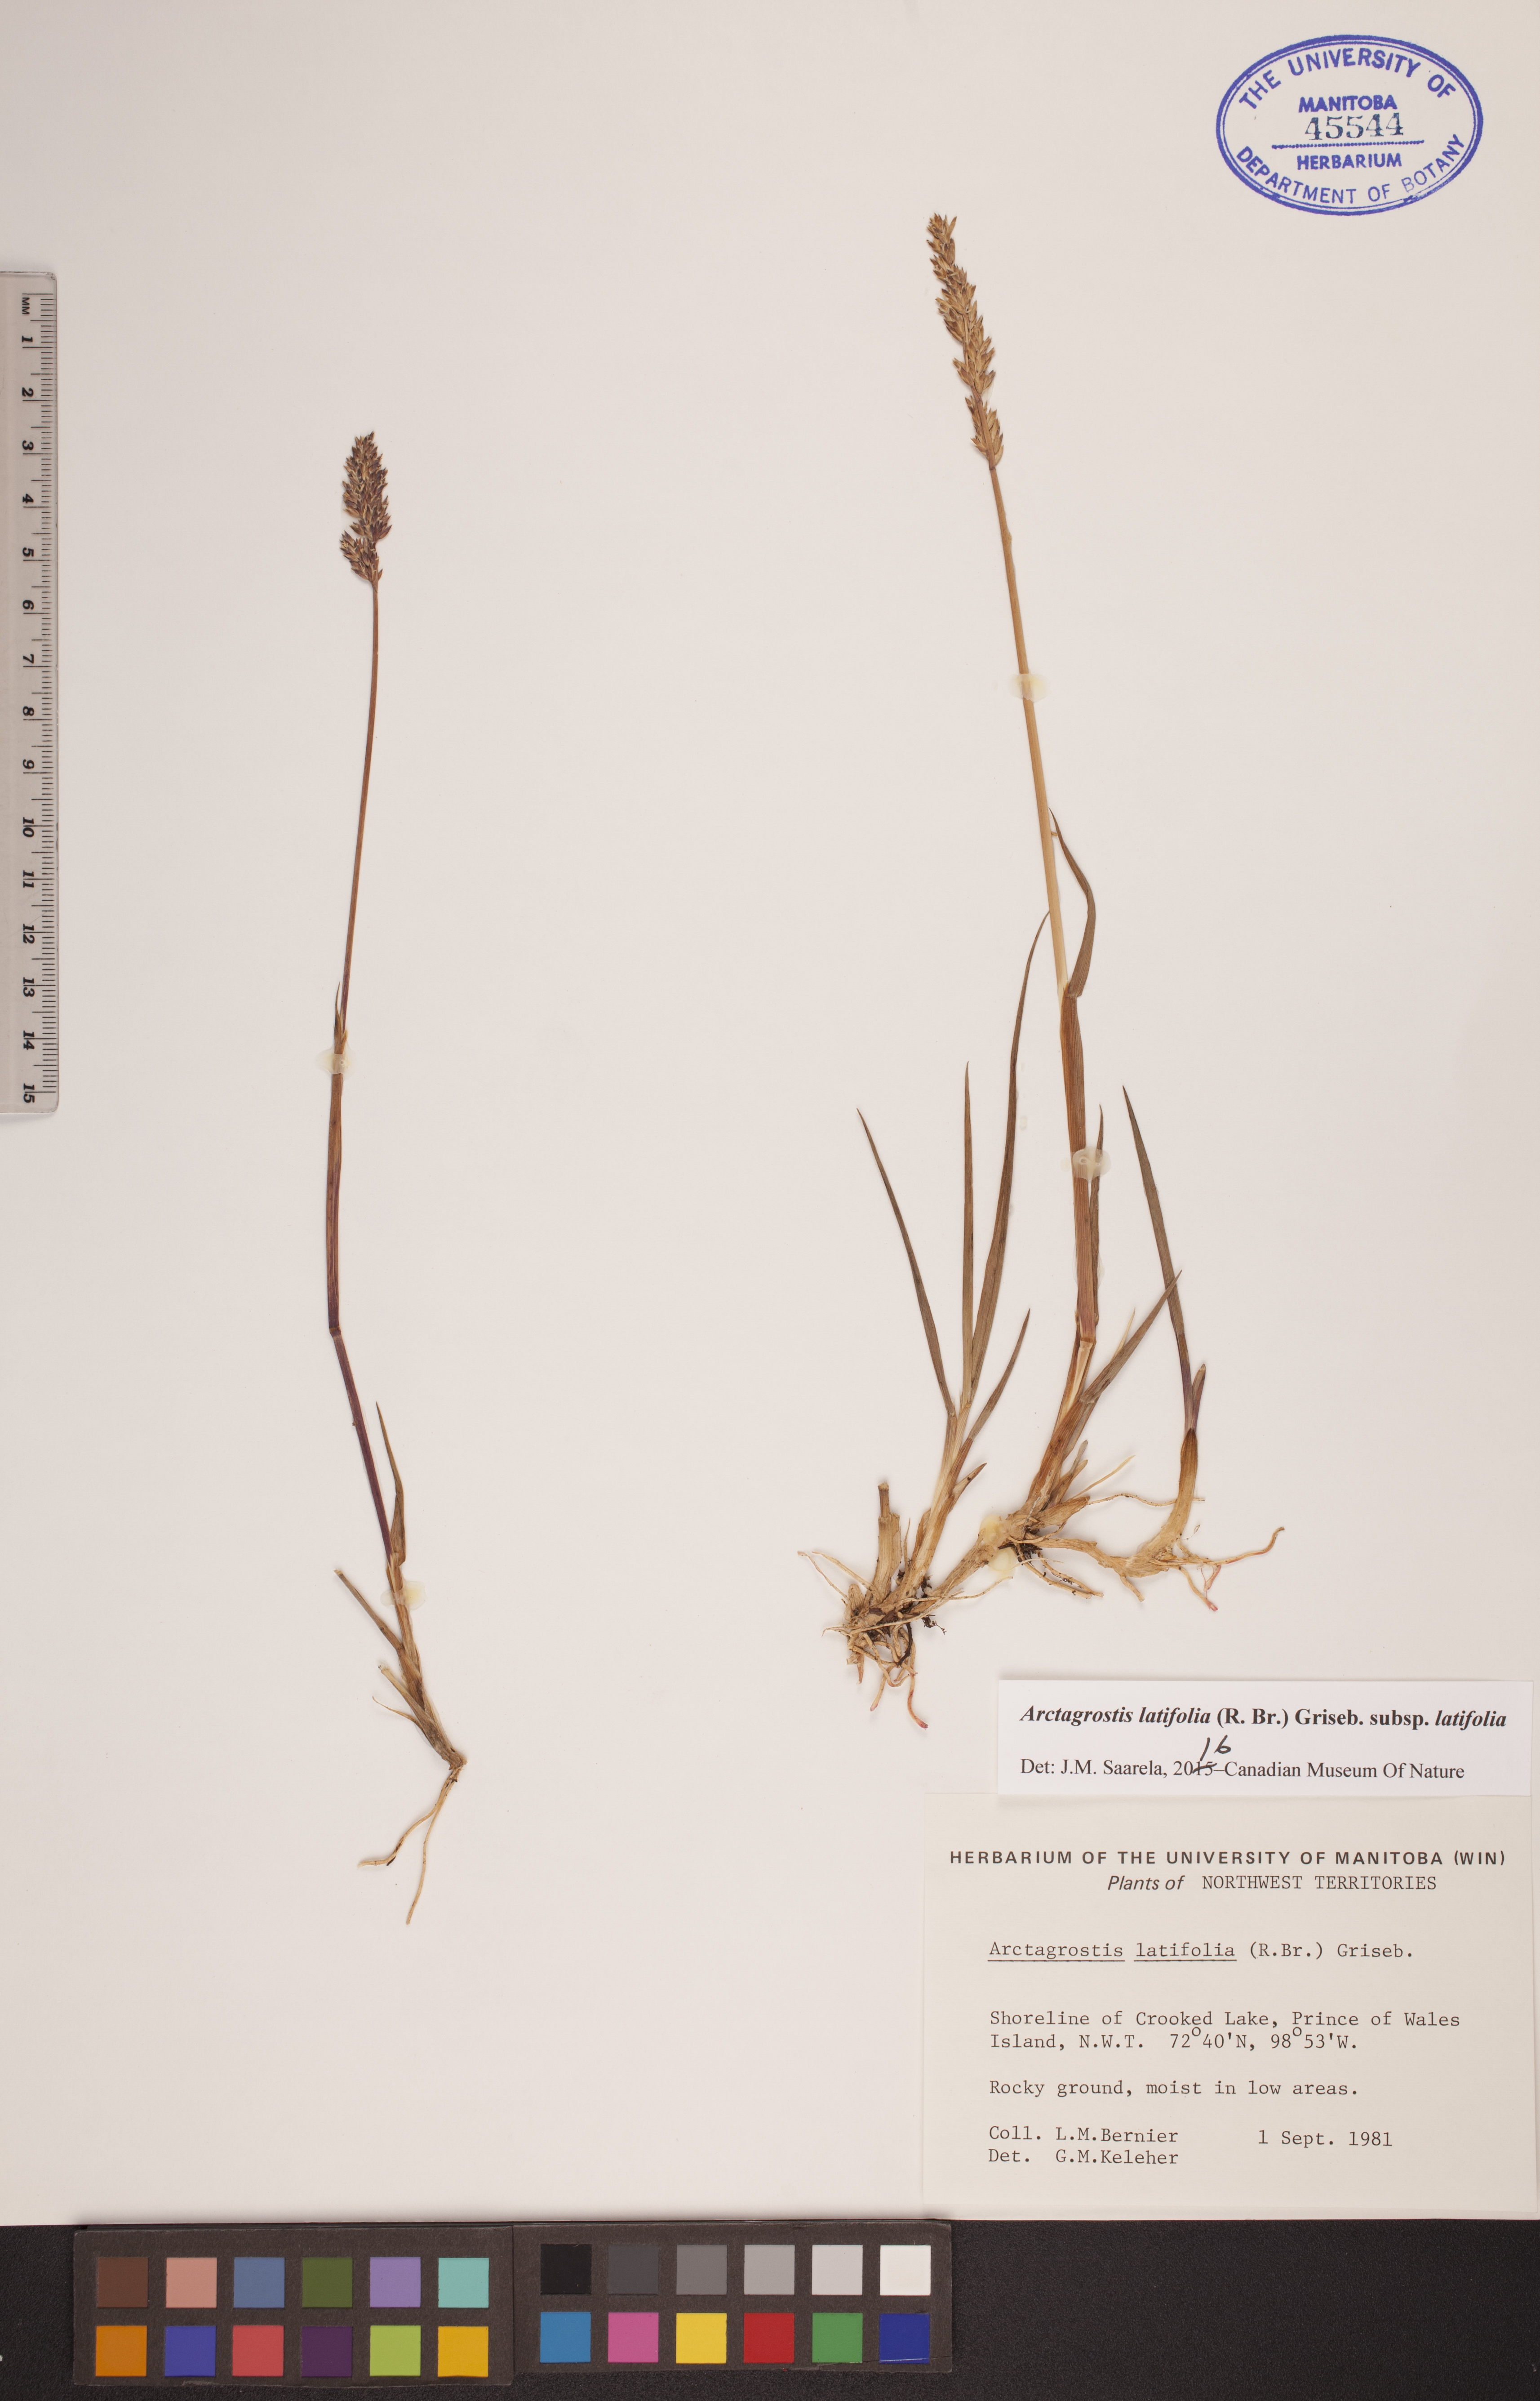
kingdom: Plantae
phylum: Tracheophyta
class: Liliopsida
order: Poales
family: Poaceae
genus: Arctagrostis
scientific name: Arctagrostis latifolia
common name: Arctic grass
